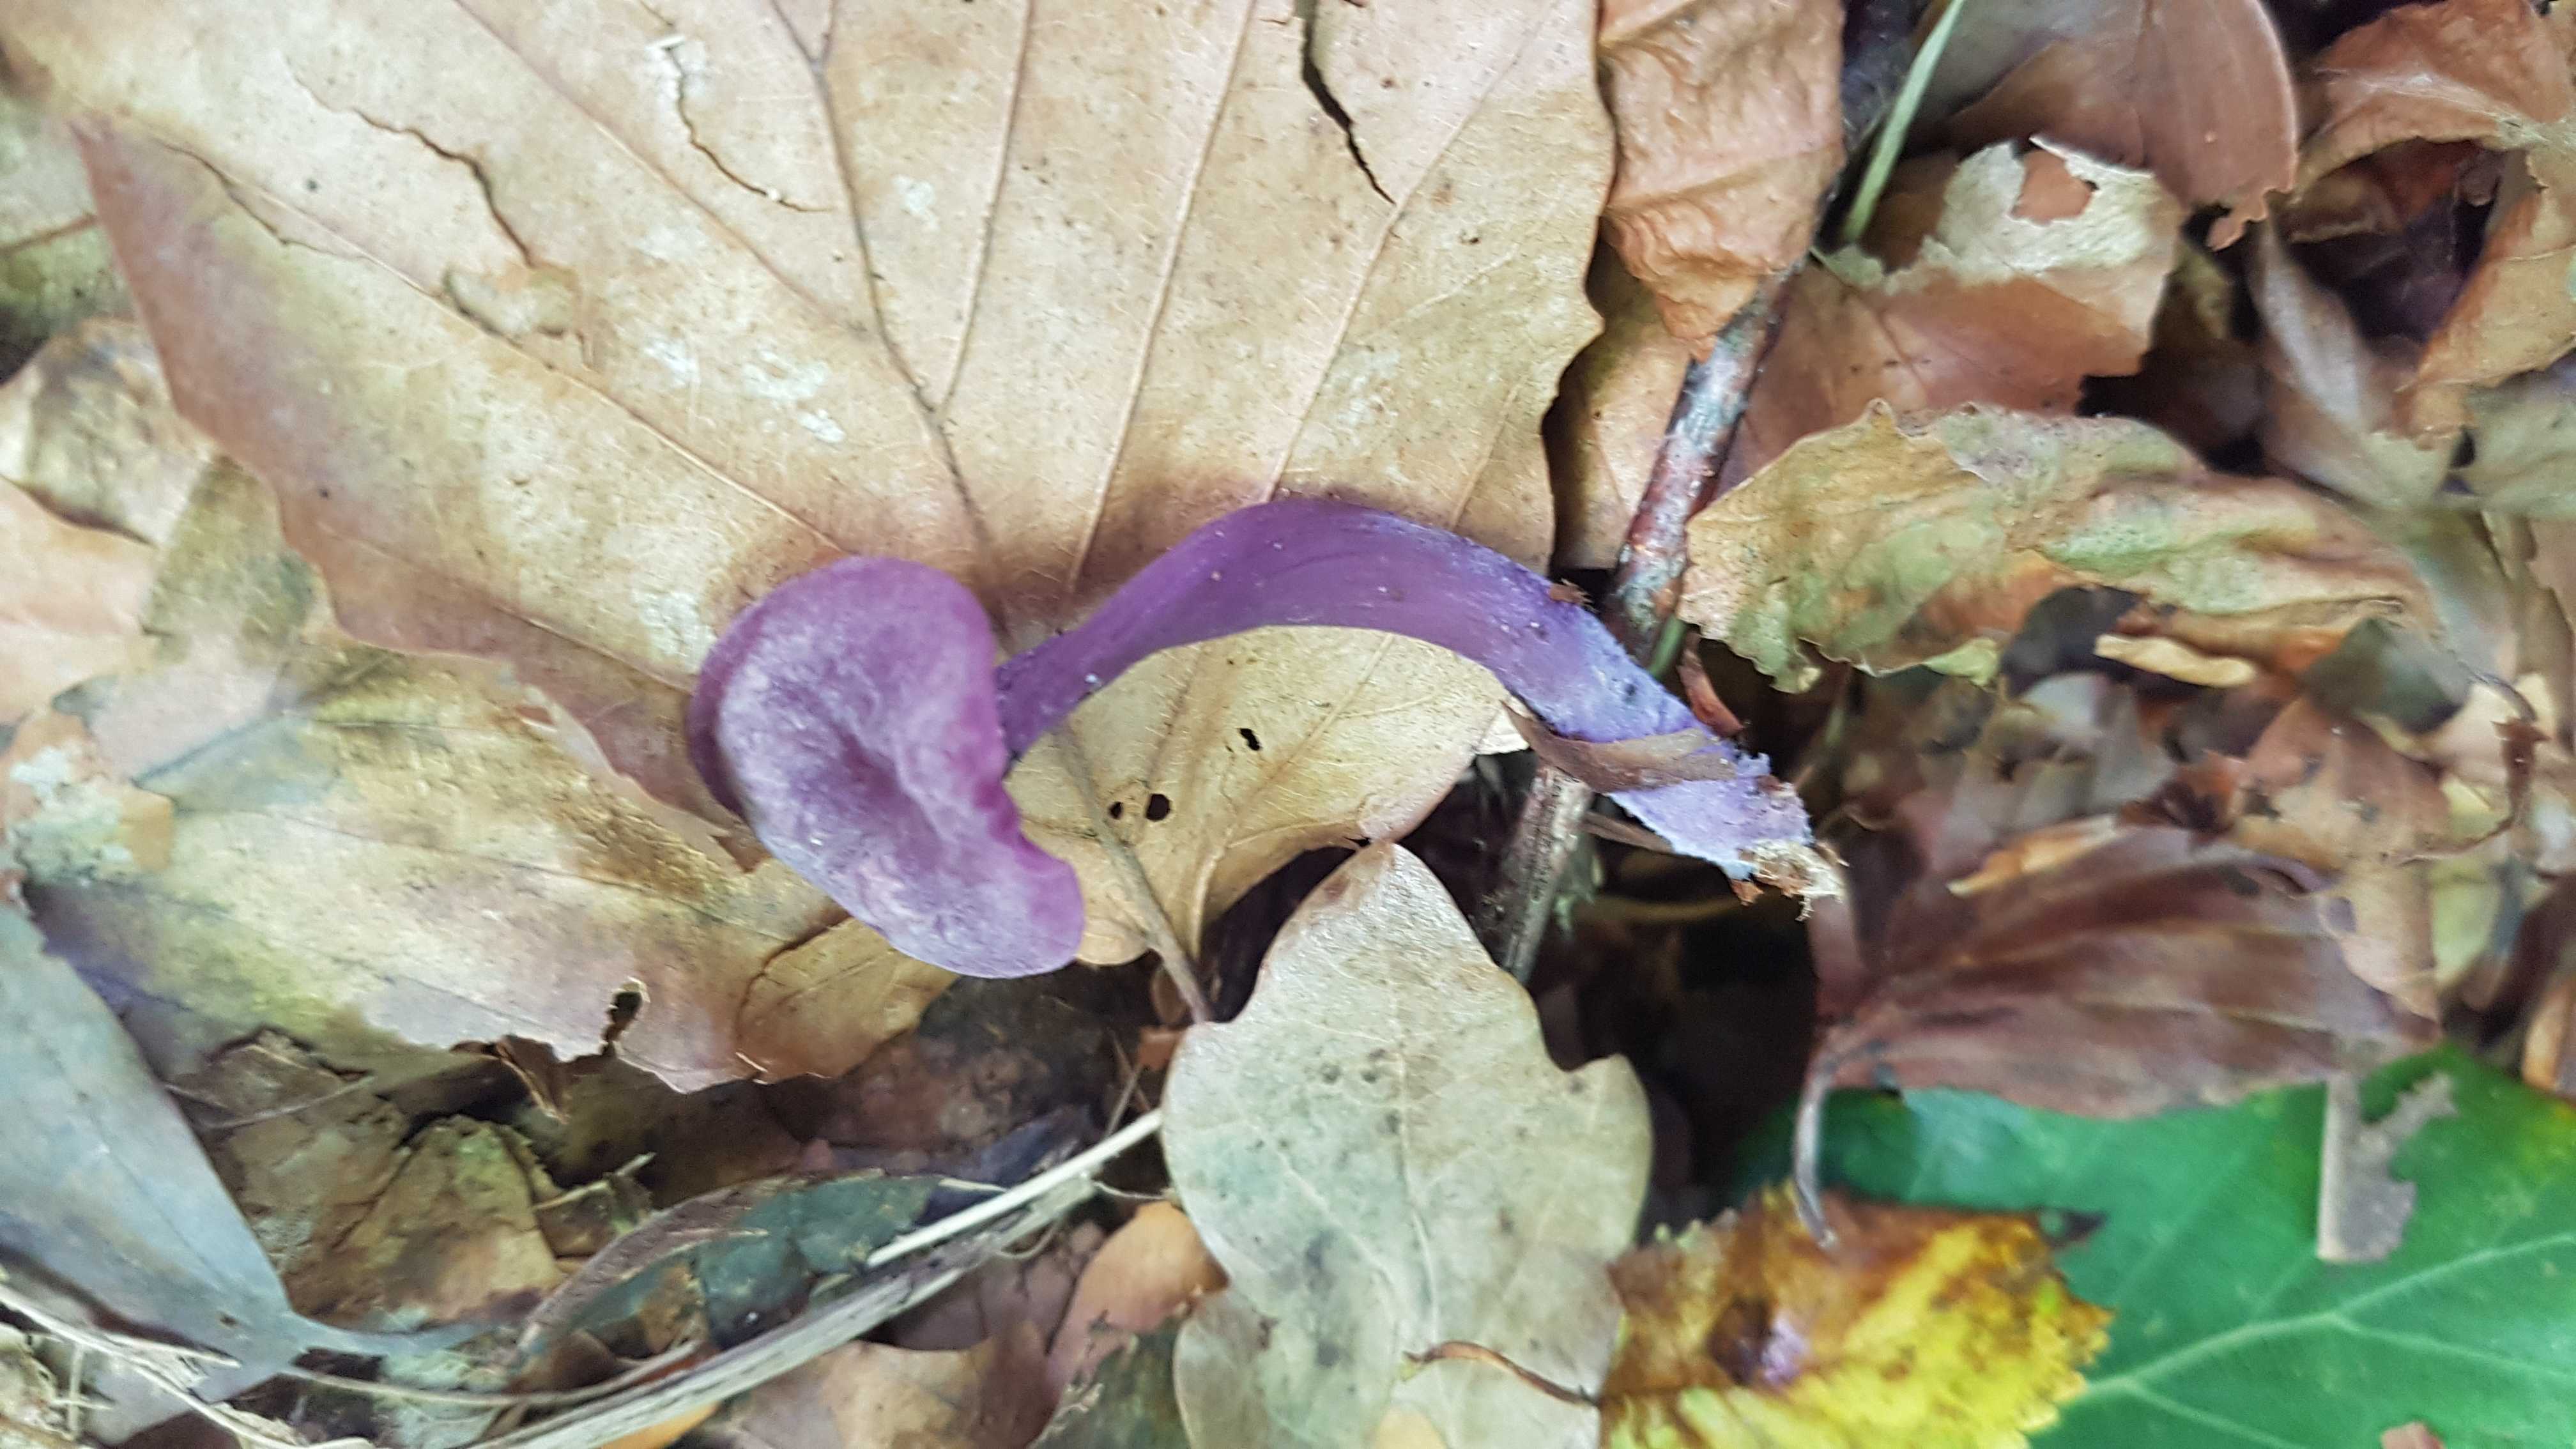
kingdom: Fungi
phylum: Basidiomycota
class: Agaricomycetes
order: Agaricales
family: Hydnangiaceae
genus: Laccaria
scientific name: Laccaria amethystina
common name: violet ametysthat
